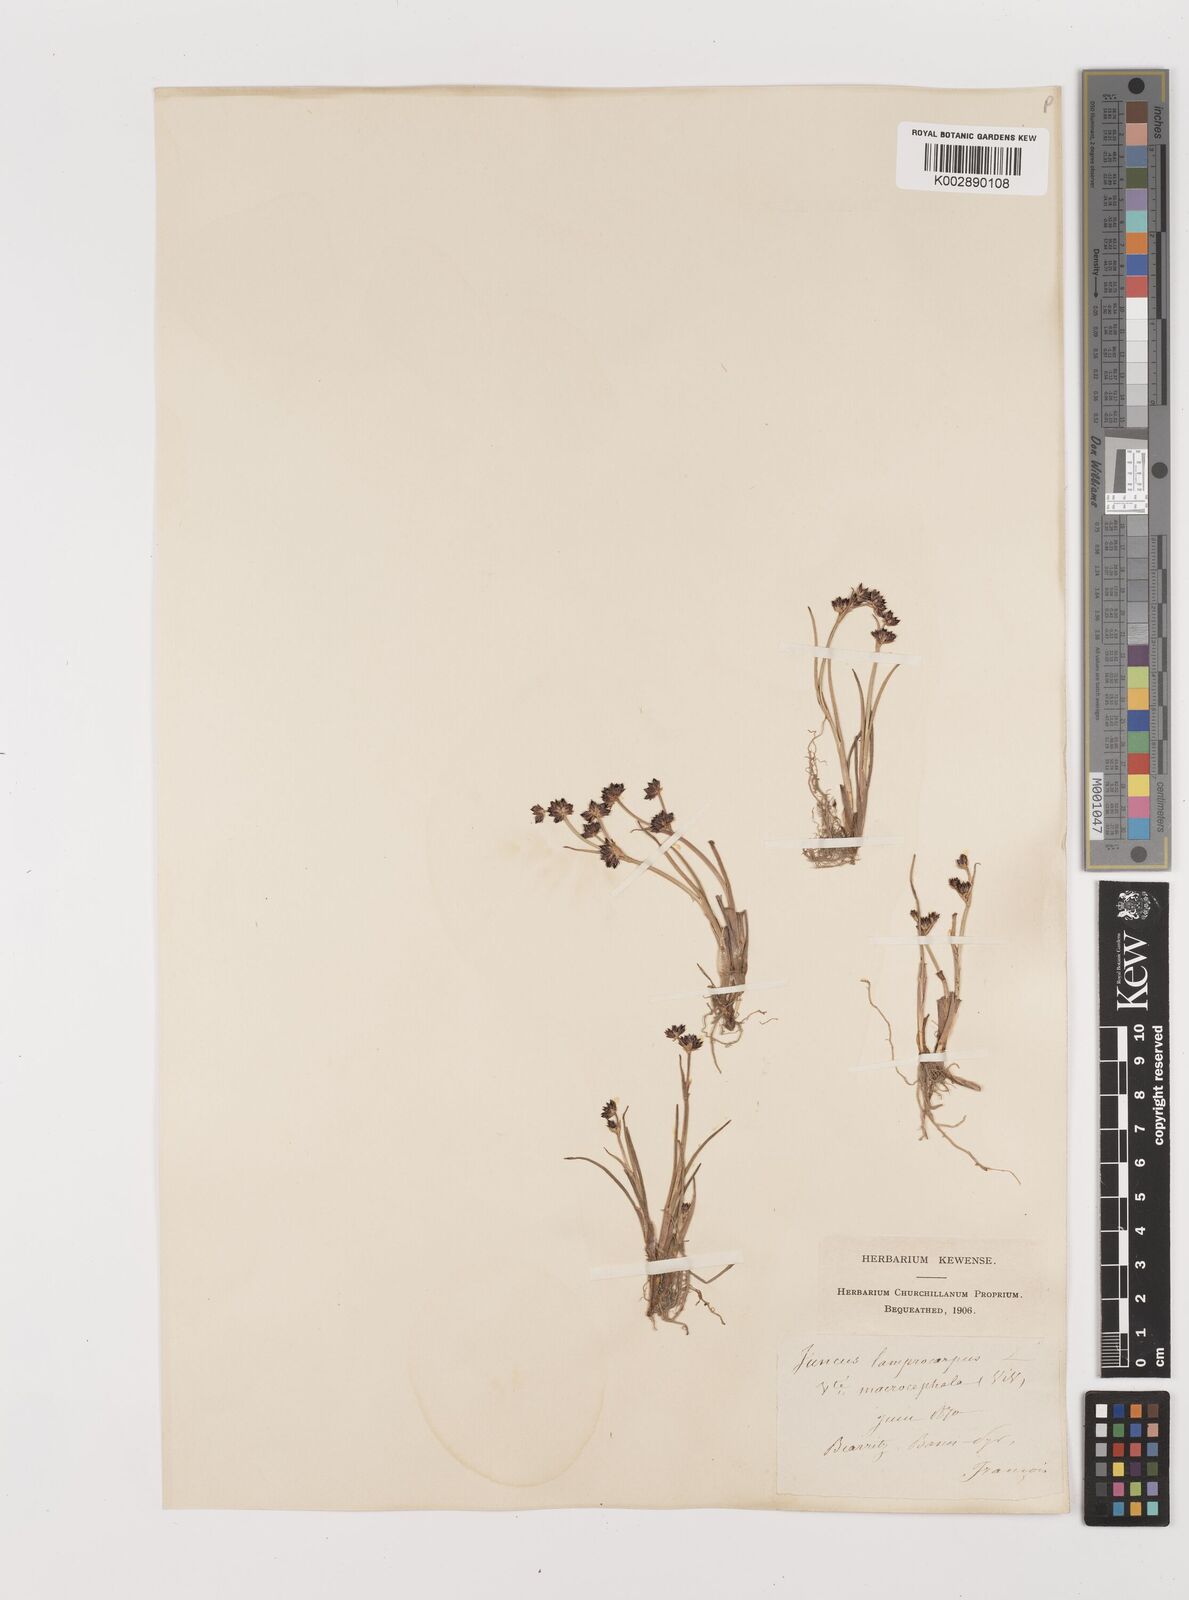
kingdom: Plantae
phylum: Tracheophyta
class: Liliopsida
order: Poales
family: Juncaceae
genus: Juncus
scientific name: Juncus articulatus
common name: Jointed rush
